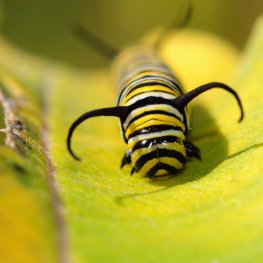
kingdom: Animalia
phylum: Arthropoda
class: Insecta
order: Lepidoptera
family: Nymphalidae
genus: Danaus
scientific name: Danaus plexippus
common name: Monarch
